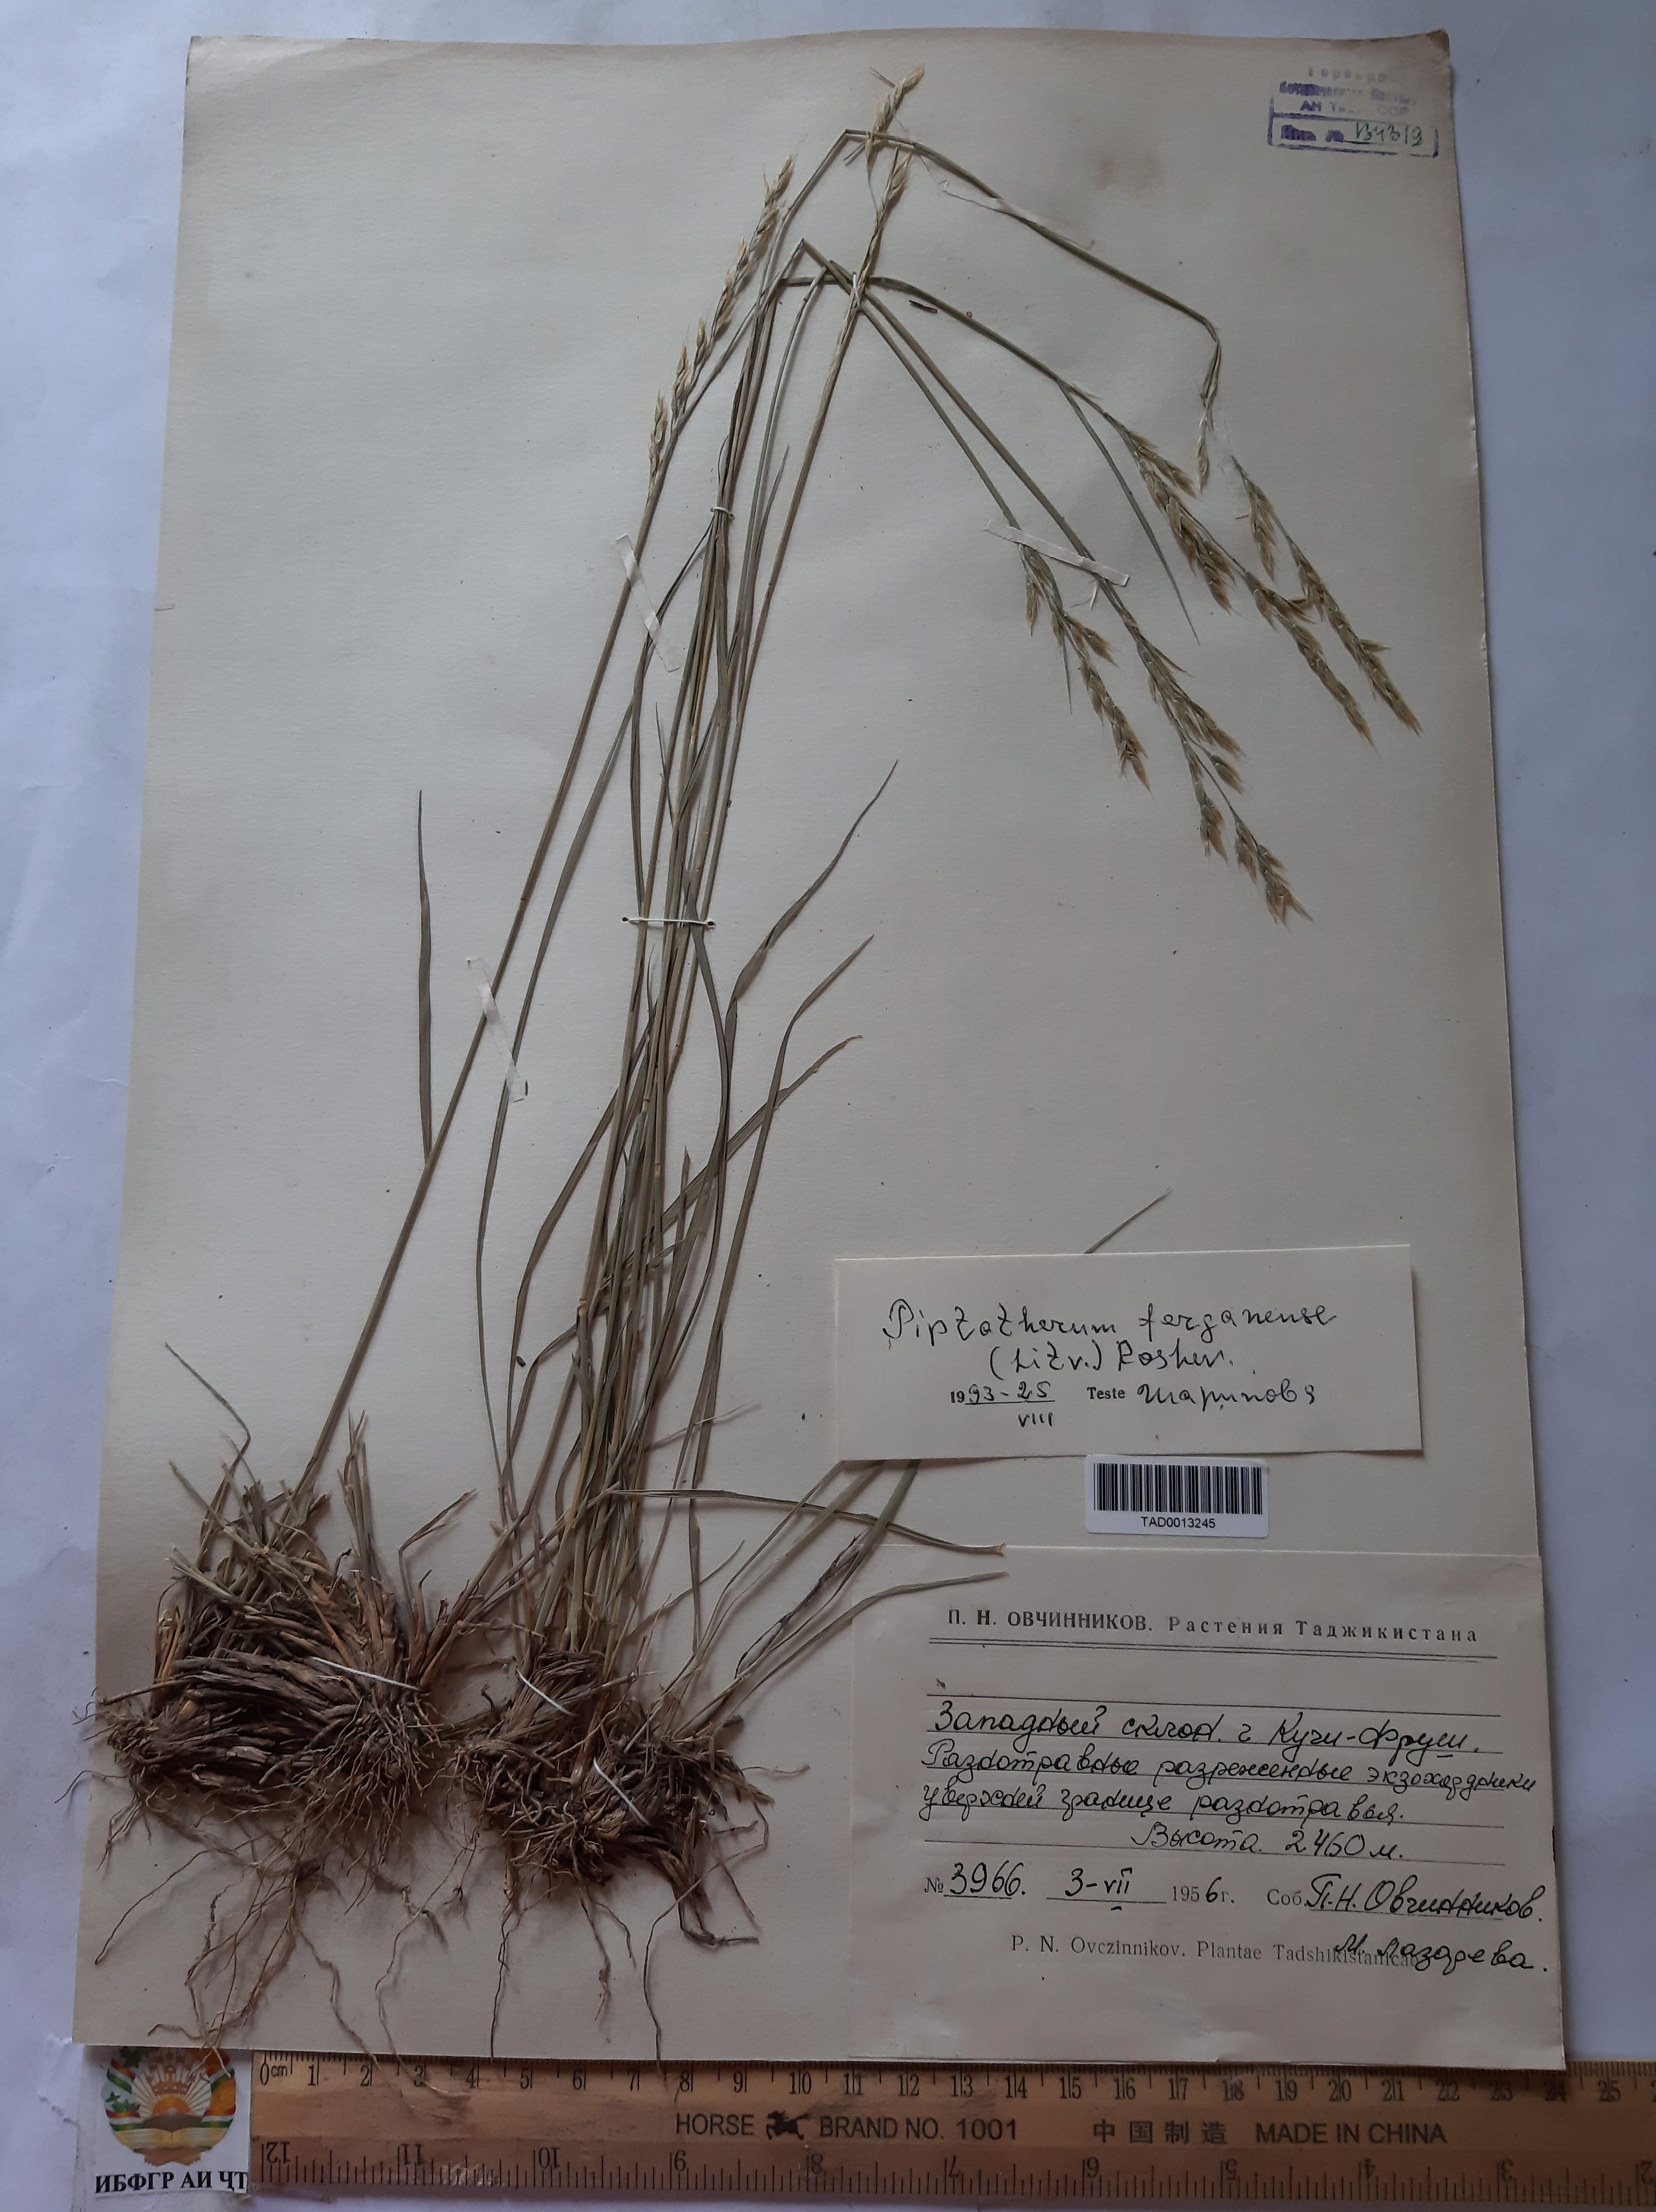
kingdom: Plantae
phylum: Tracheophyta
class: Liliopsida
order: Poales
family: Poaceae
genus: Piptatherum
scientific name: Piptatherum ferganense
